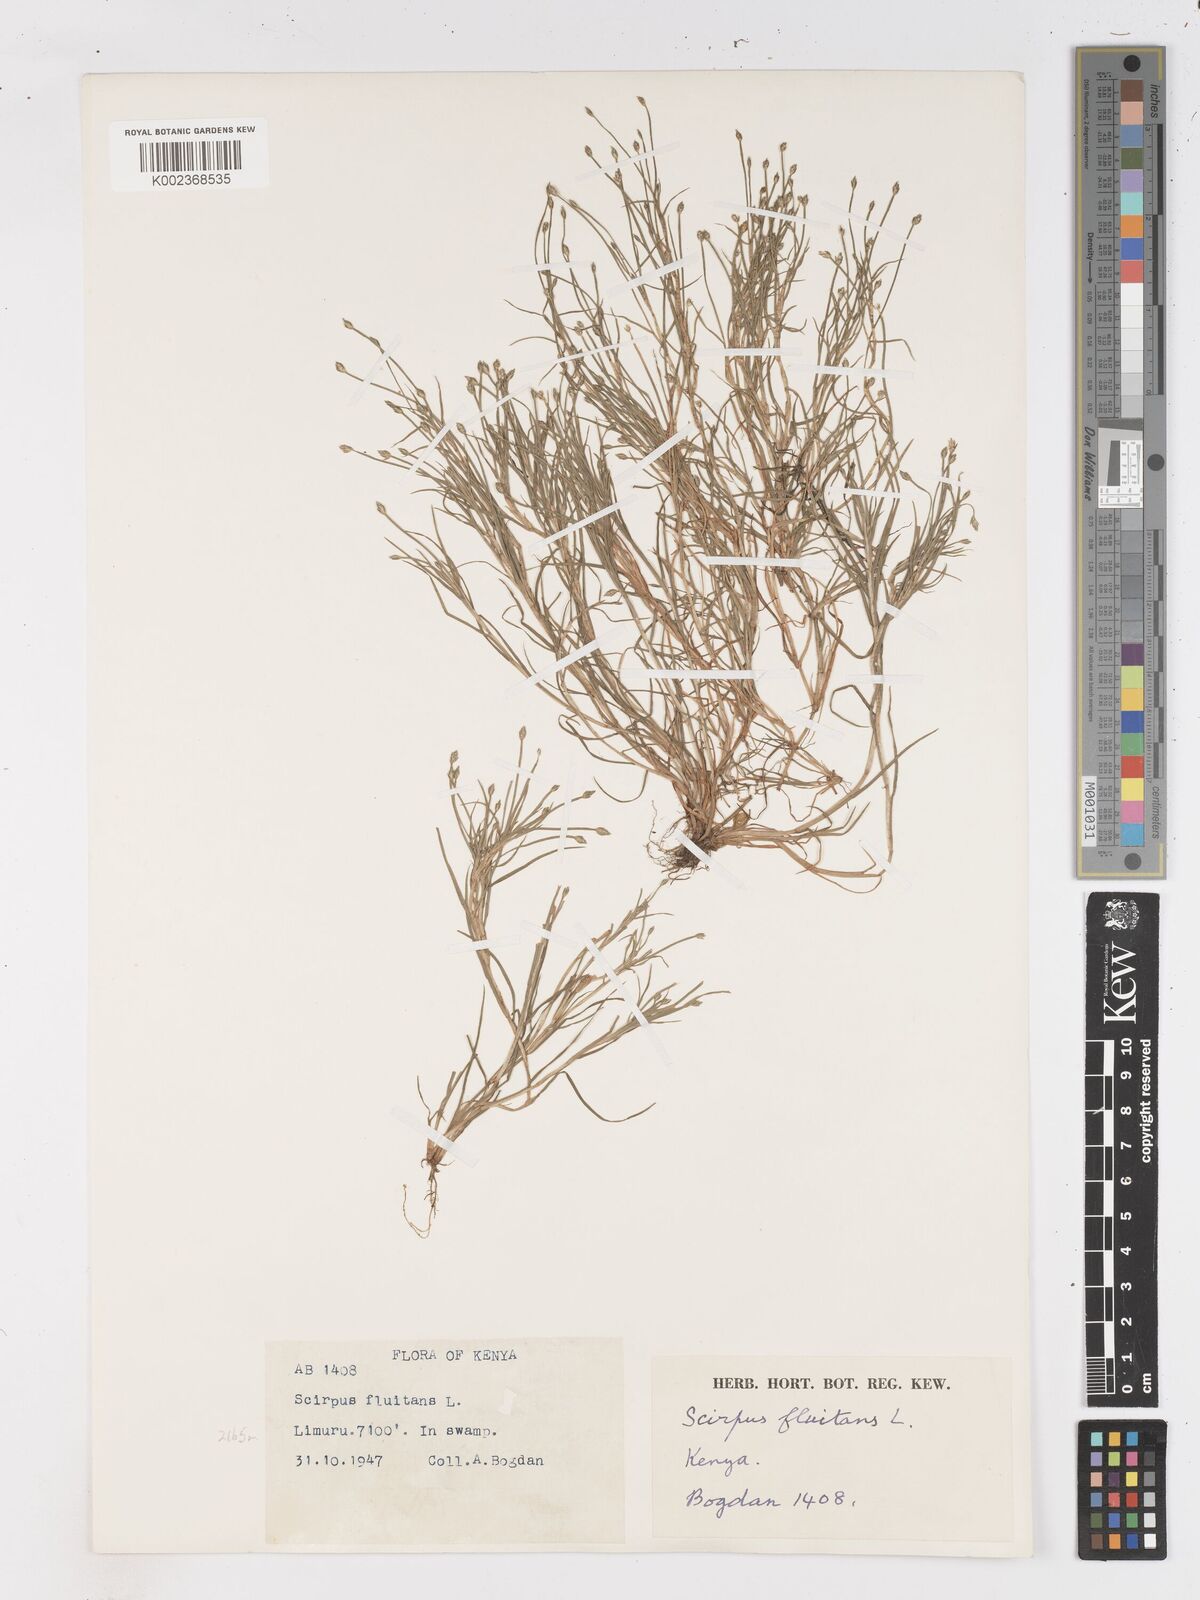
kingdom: Plantae
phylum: Tracheophyta
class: Liliopsida
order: Poales
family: Cyperaceae
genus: Isolepis
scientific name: Isolepis fluitans
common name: Floating club-rush
